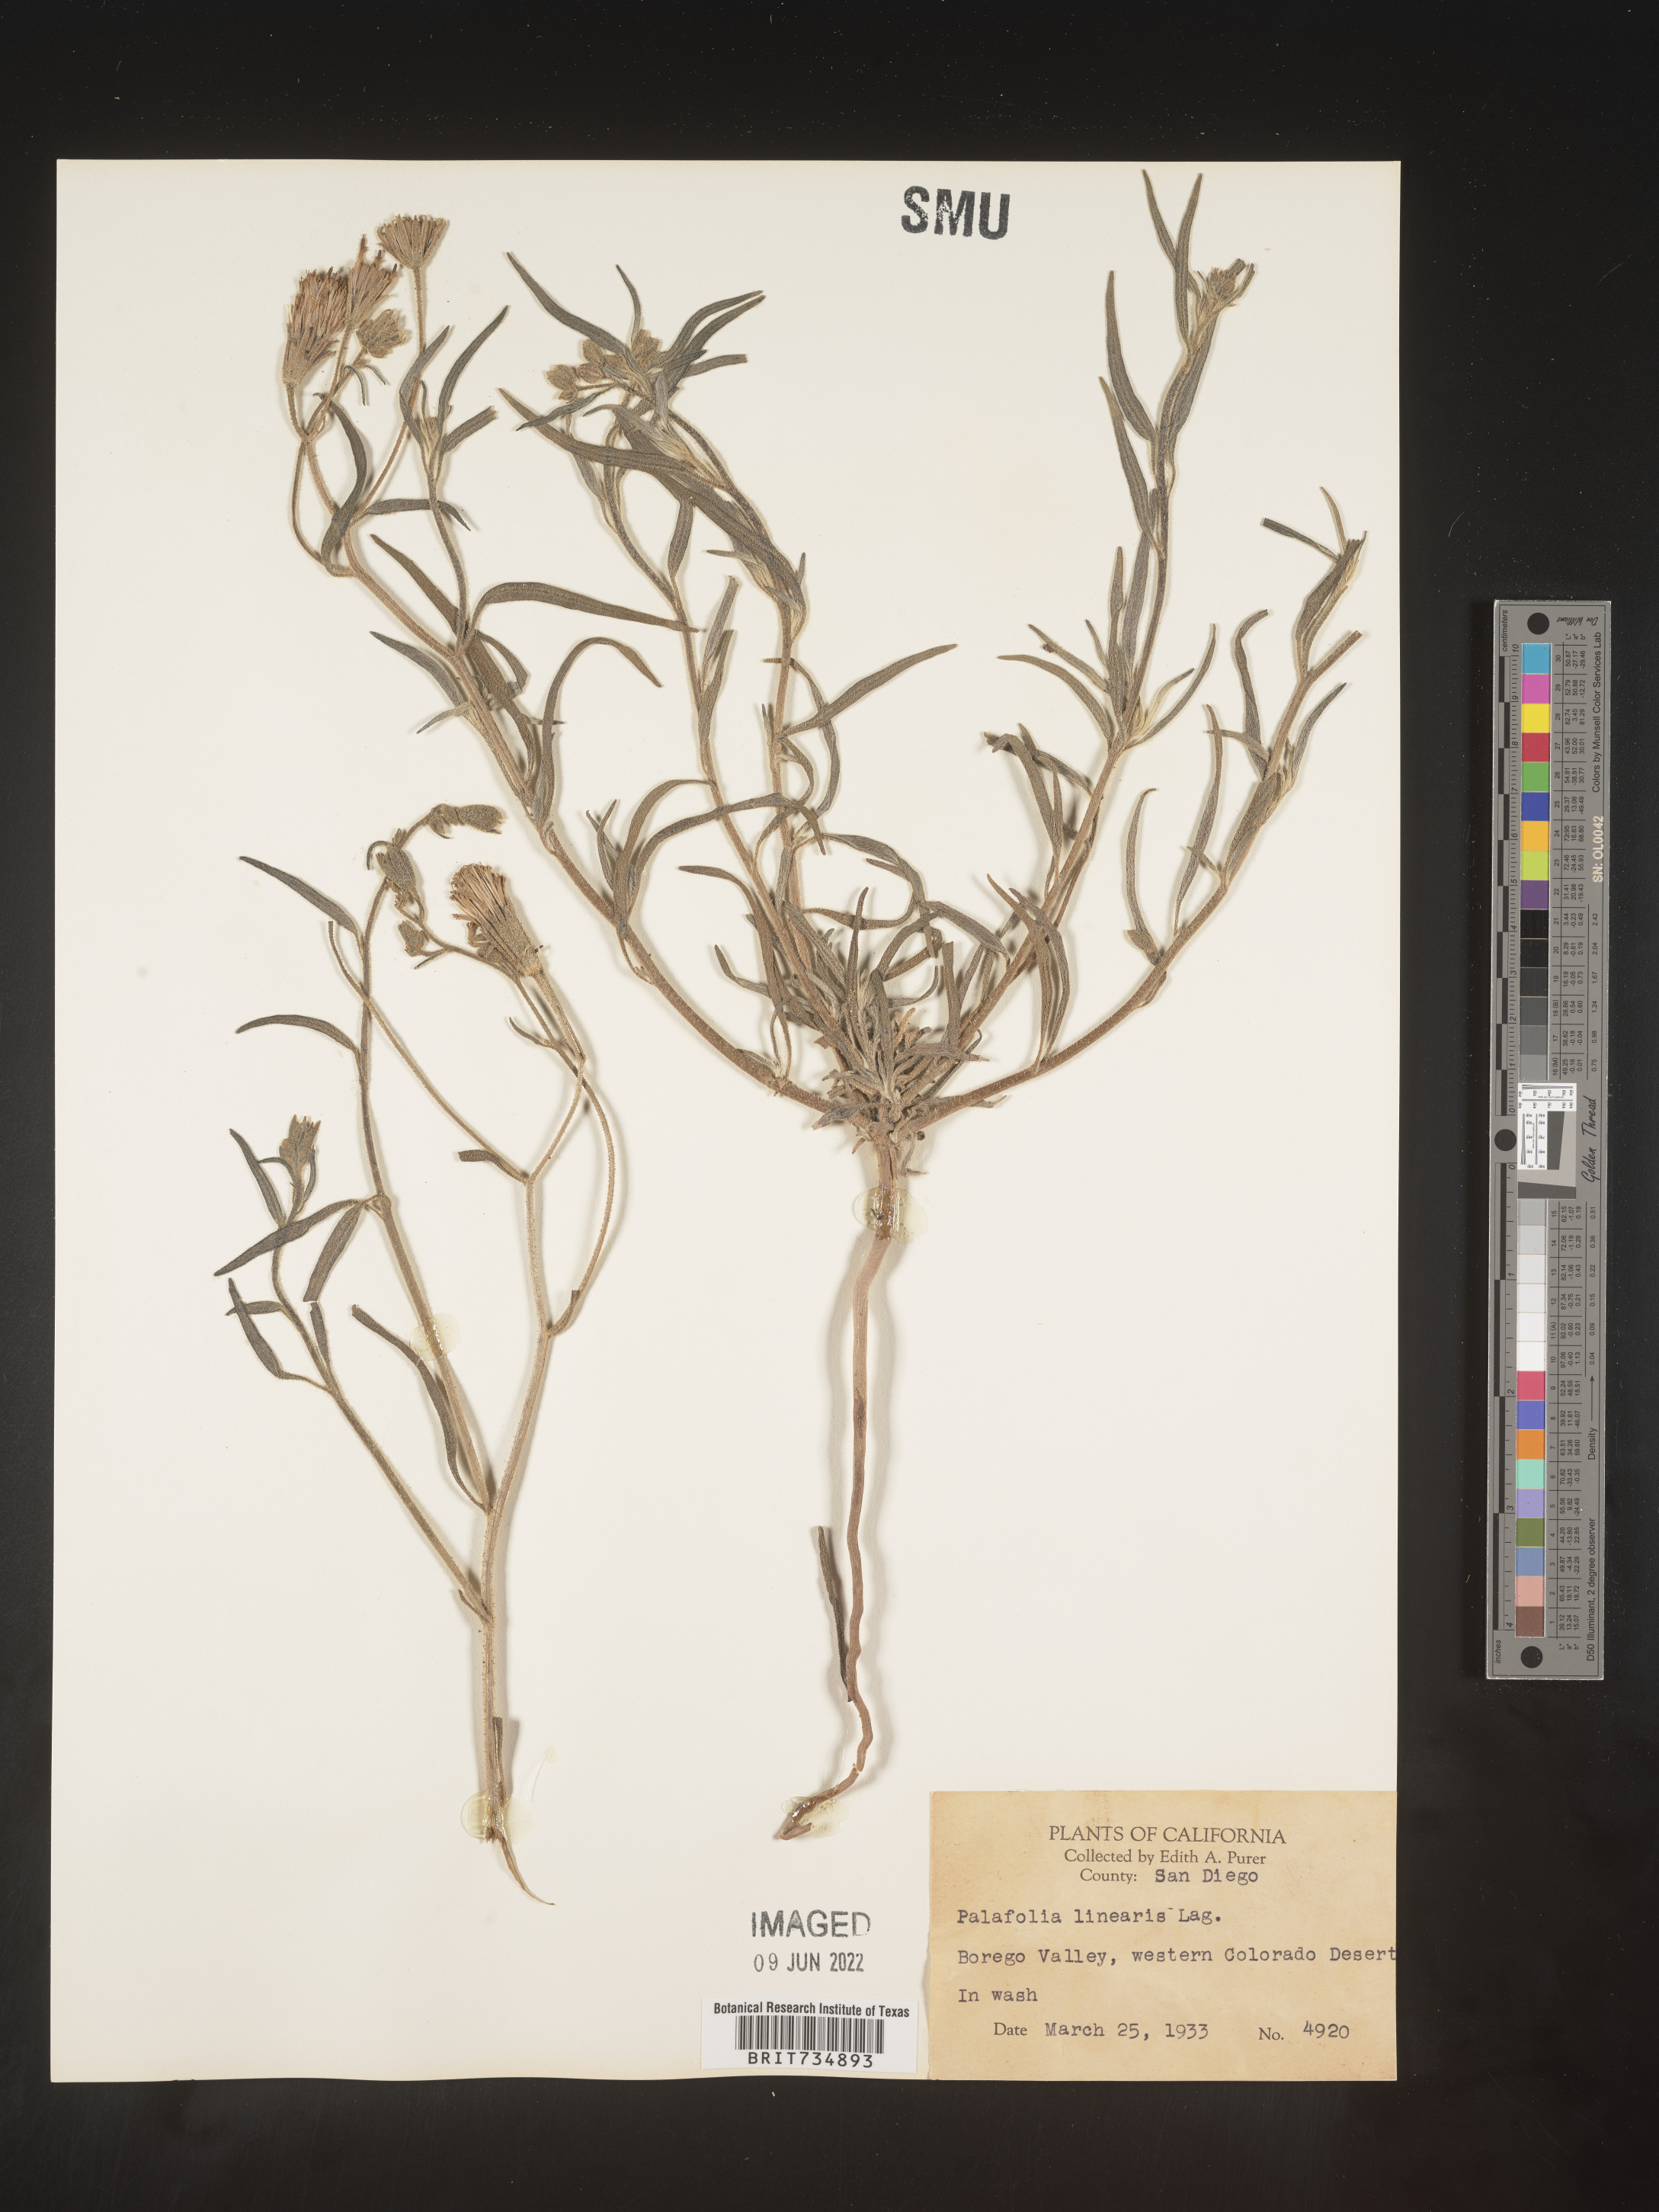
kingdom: Plantae
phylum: Tracheophyta
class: Magnoliopsida
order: Asterales
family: Asteraceae
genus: Palafoxia
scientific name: Palafoxia linearis
